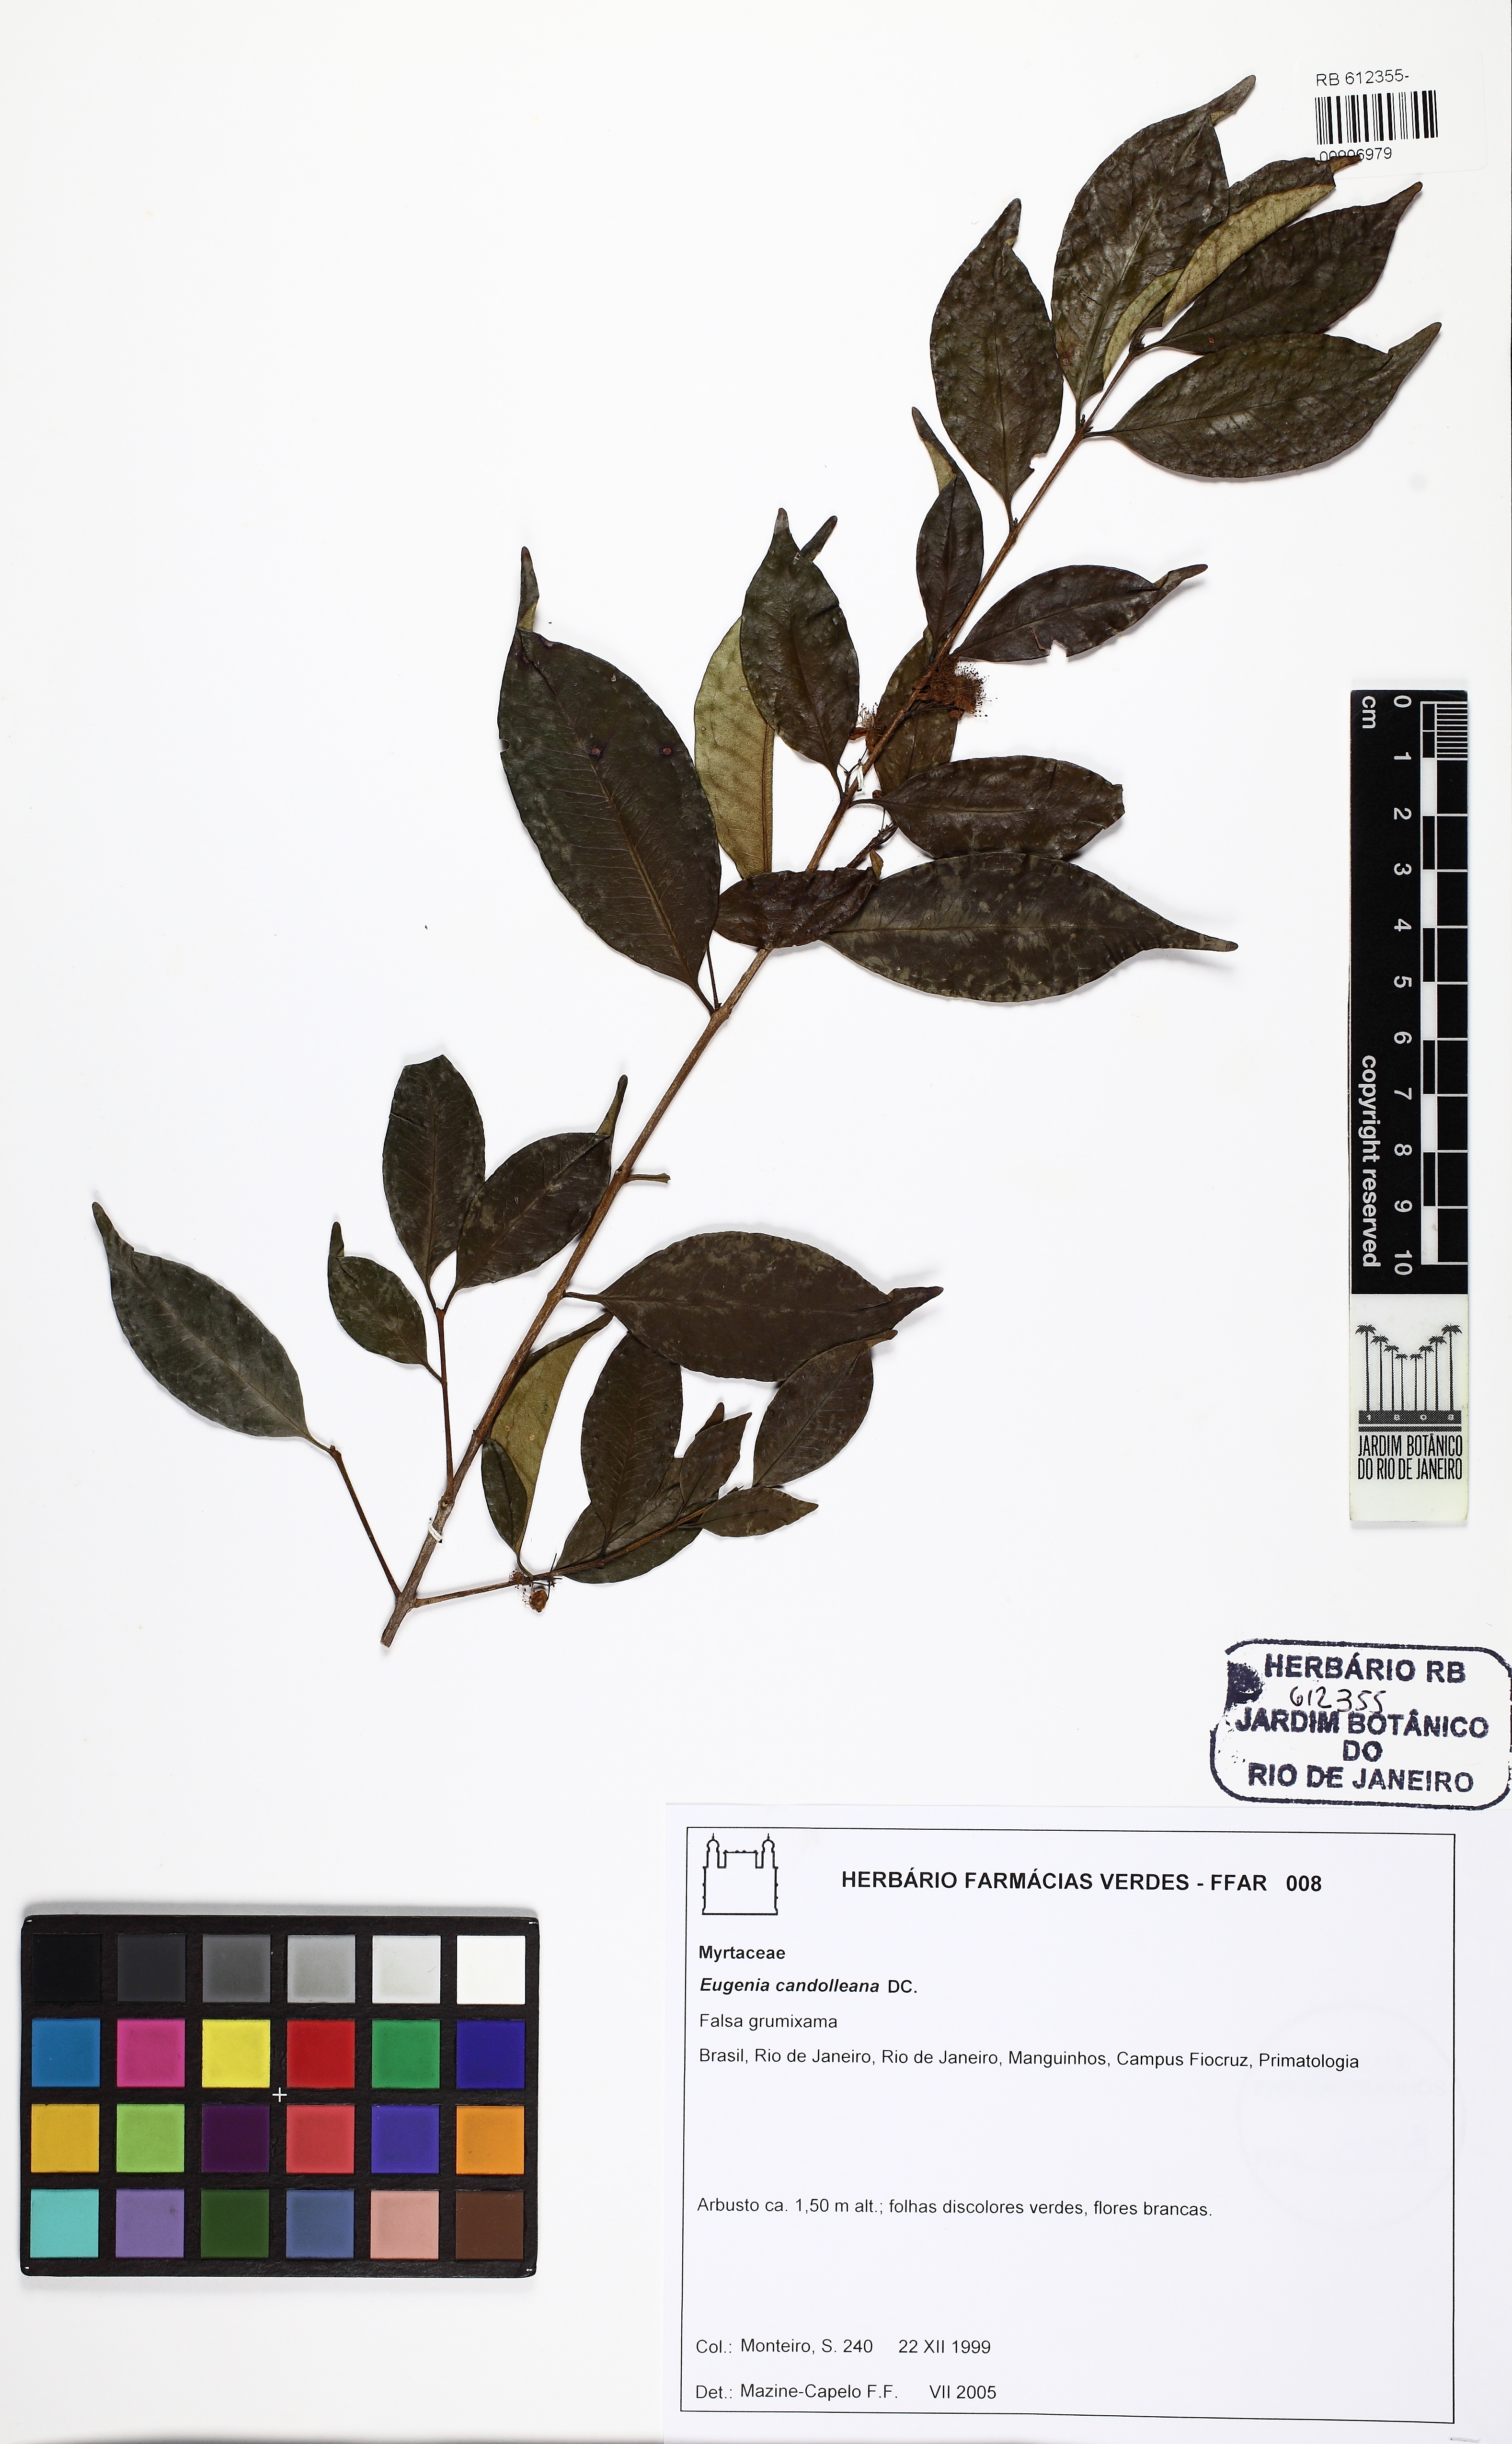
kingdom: Plantae
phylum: Tracheophyta
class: Magnoliopsida
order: Myrtales
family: Myrtaceae
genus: Eugenia
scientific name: Eugenia candolleana
